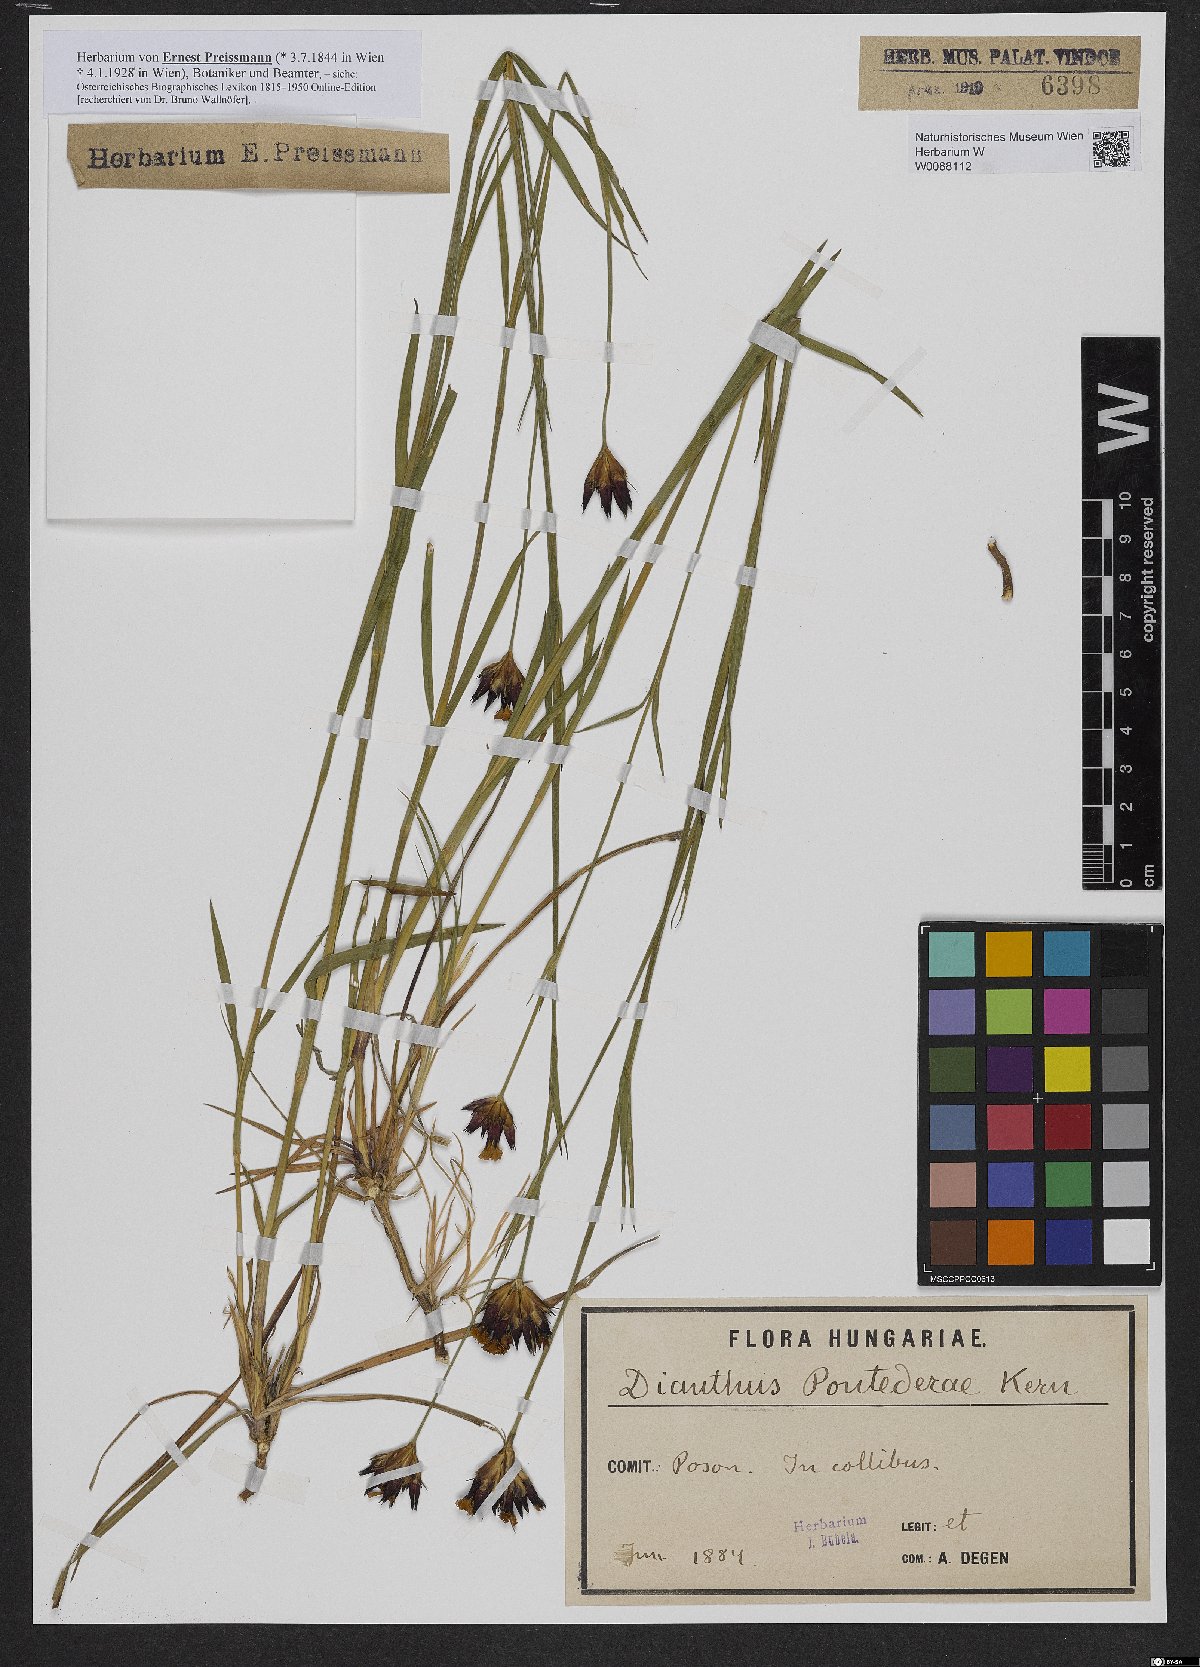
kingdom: Plantae
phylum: Tracheophyta
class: Magnoliopsida
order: Caryophyllales
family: Caryophyllaceae
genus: Dianthus
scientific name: Dianthus pontederae
